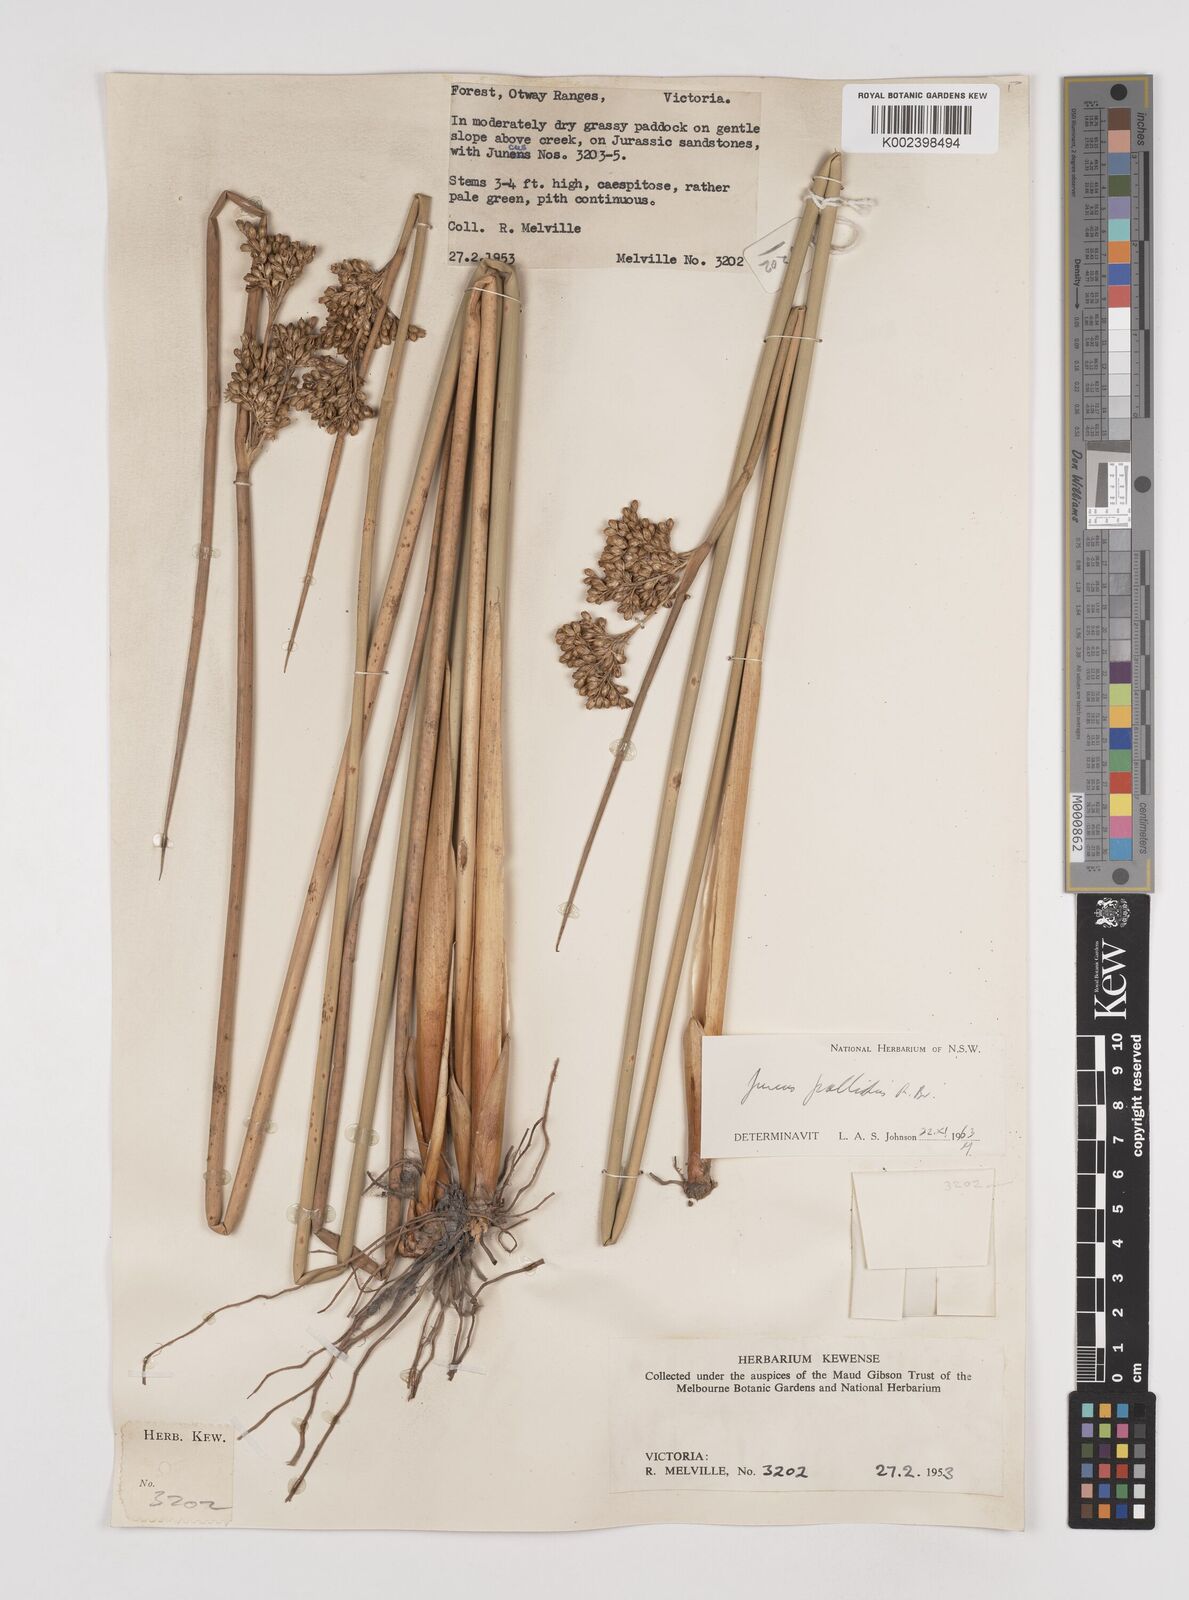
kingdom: Plantae
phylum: Tracheophyta
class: Liliopsida
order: Poales
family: Juncaceae
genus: Juncus
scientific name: Juncus pallidus
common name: Great soft-rush
